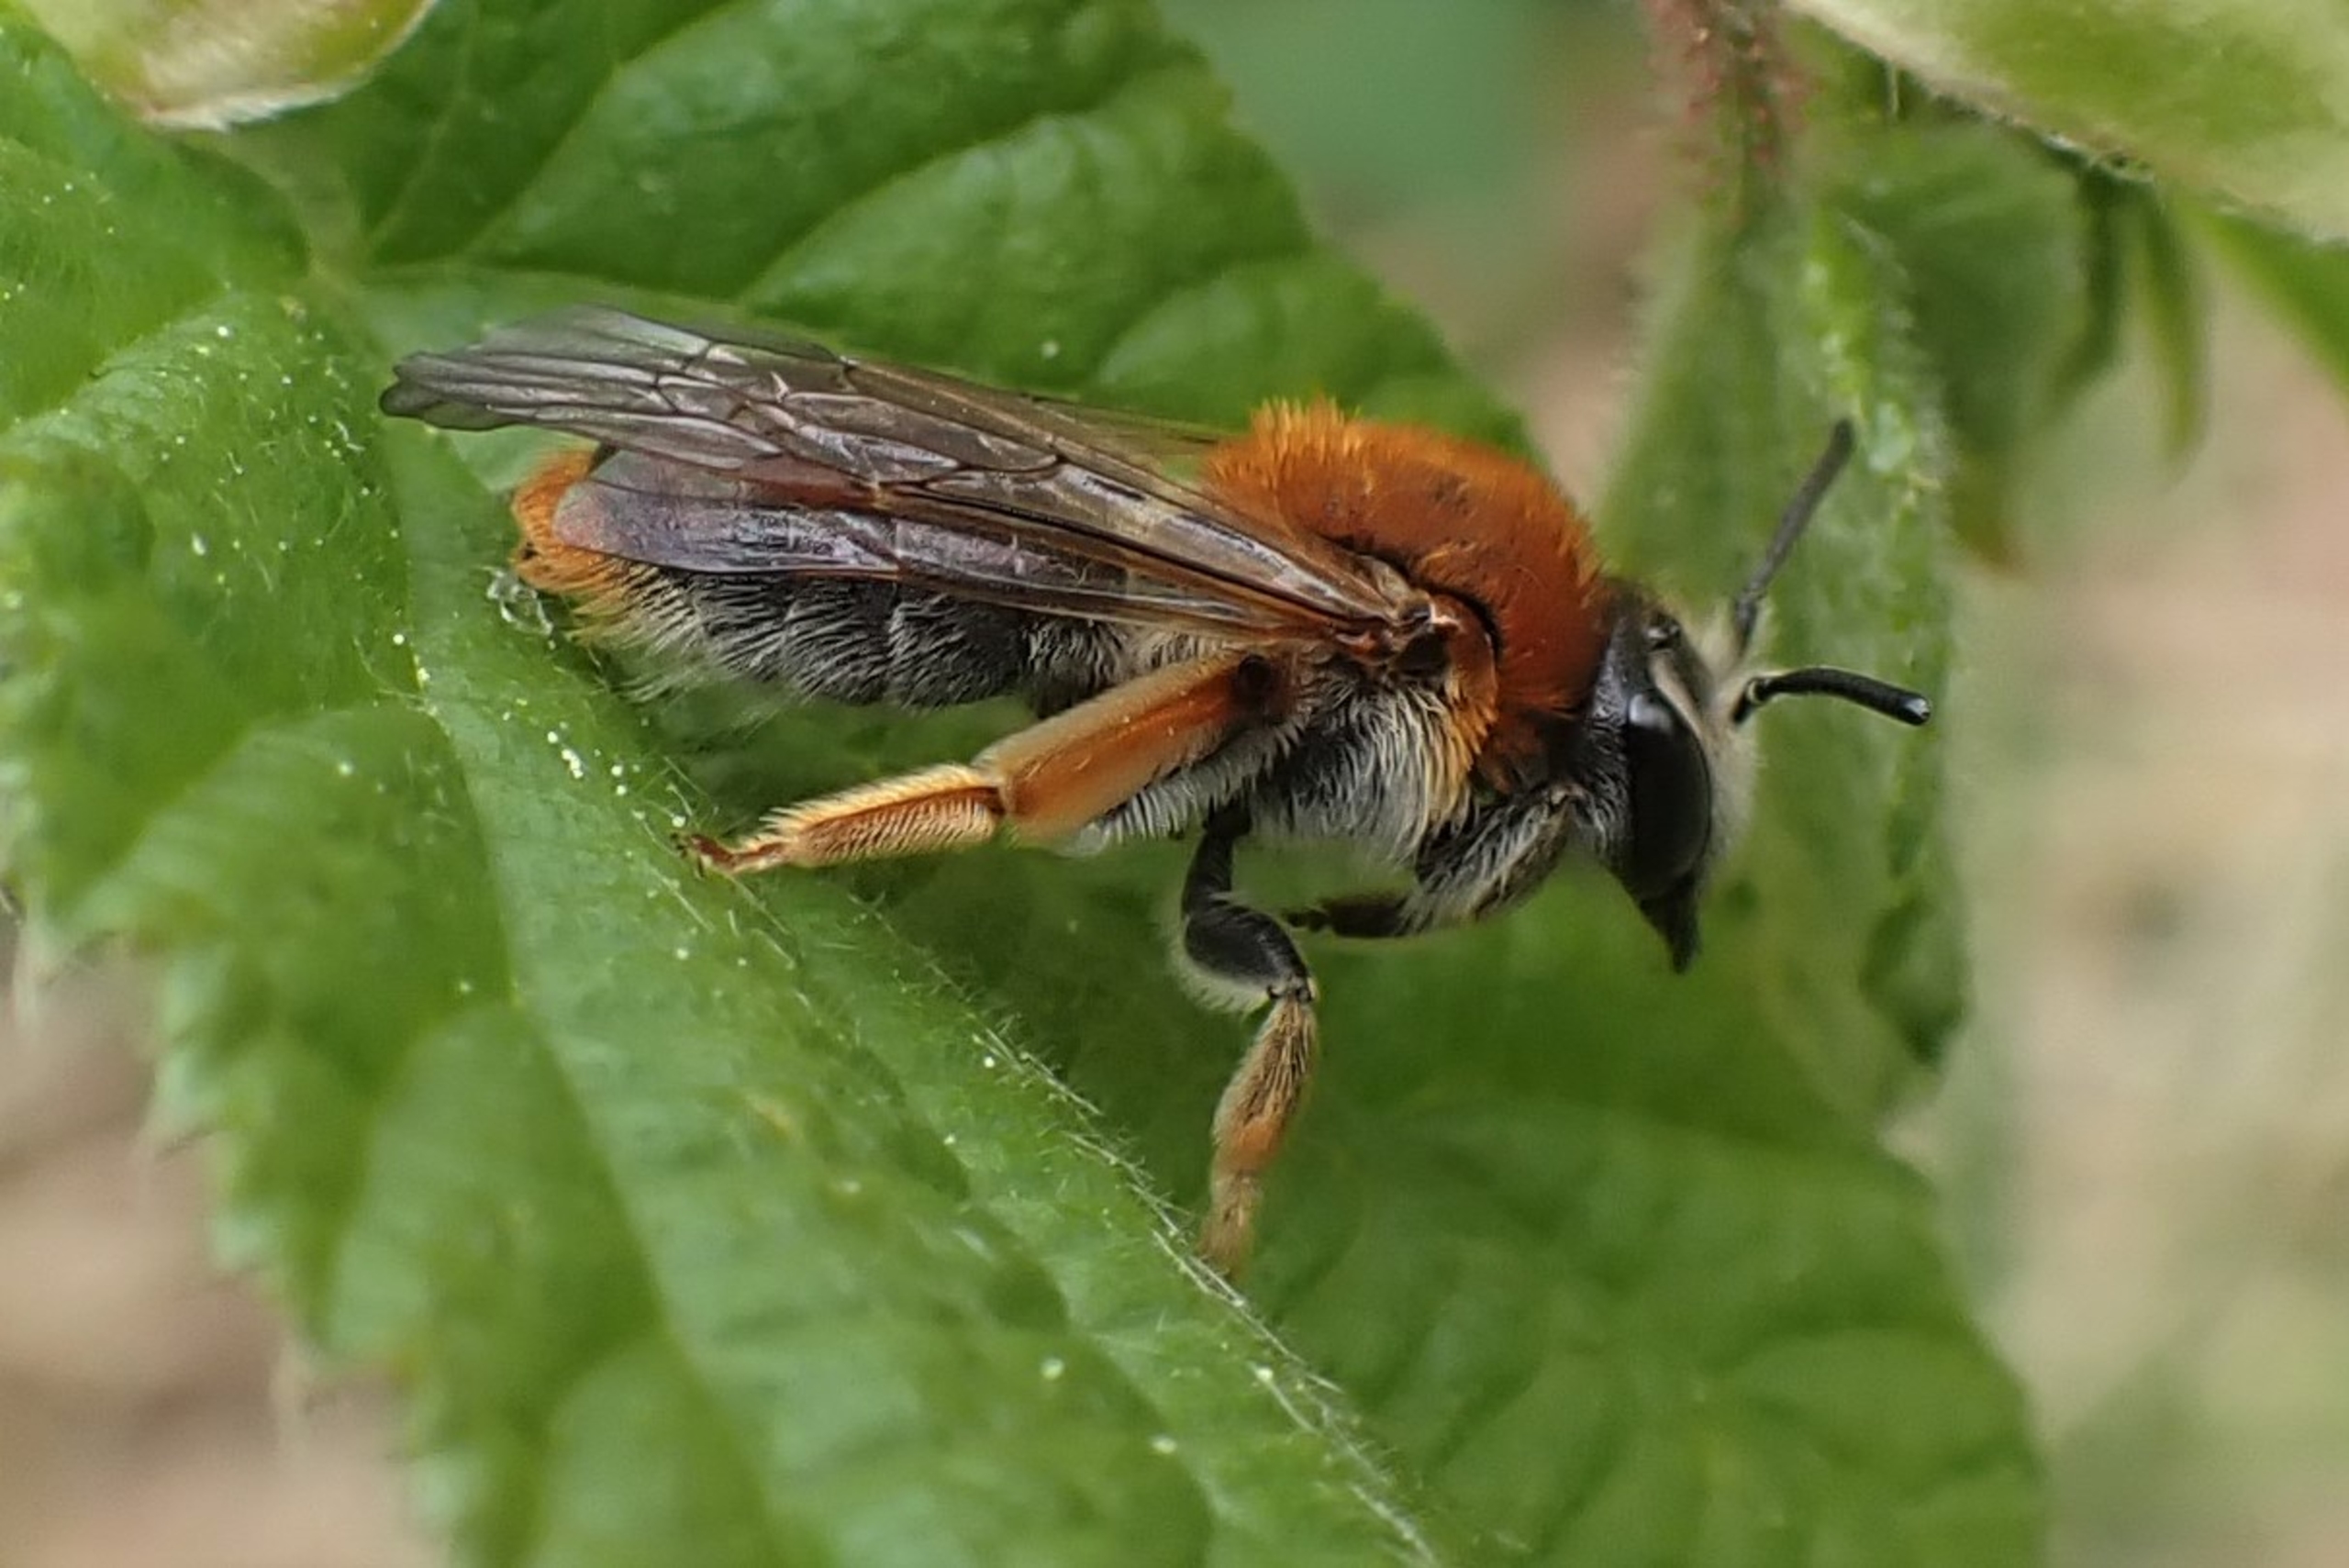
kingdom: Animalia
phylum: Arthropoda
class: Insecta
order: Hymenoptera
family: Andrenidae
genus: Andrena
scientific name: Andrena haemorrhoa
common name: Havejordbi
